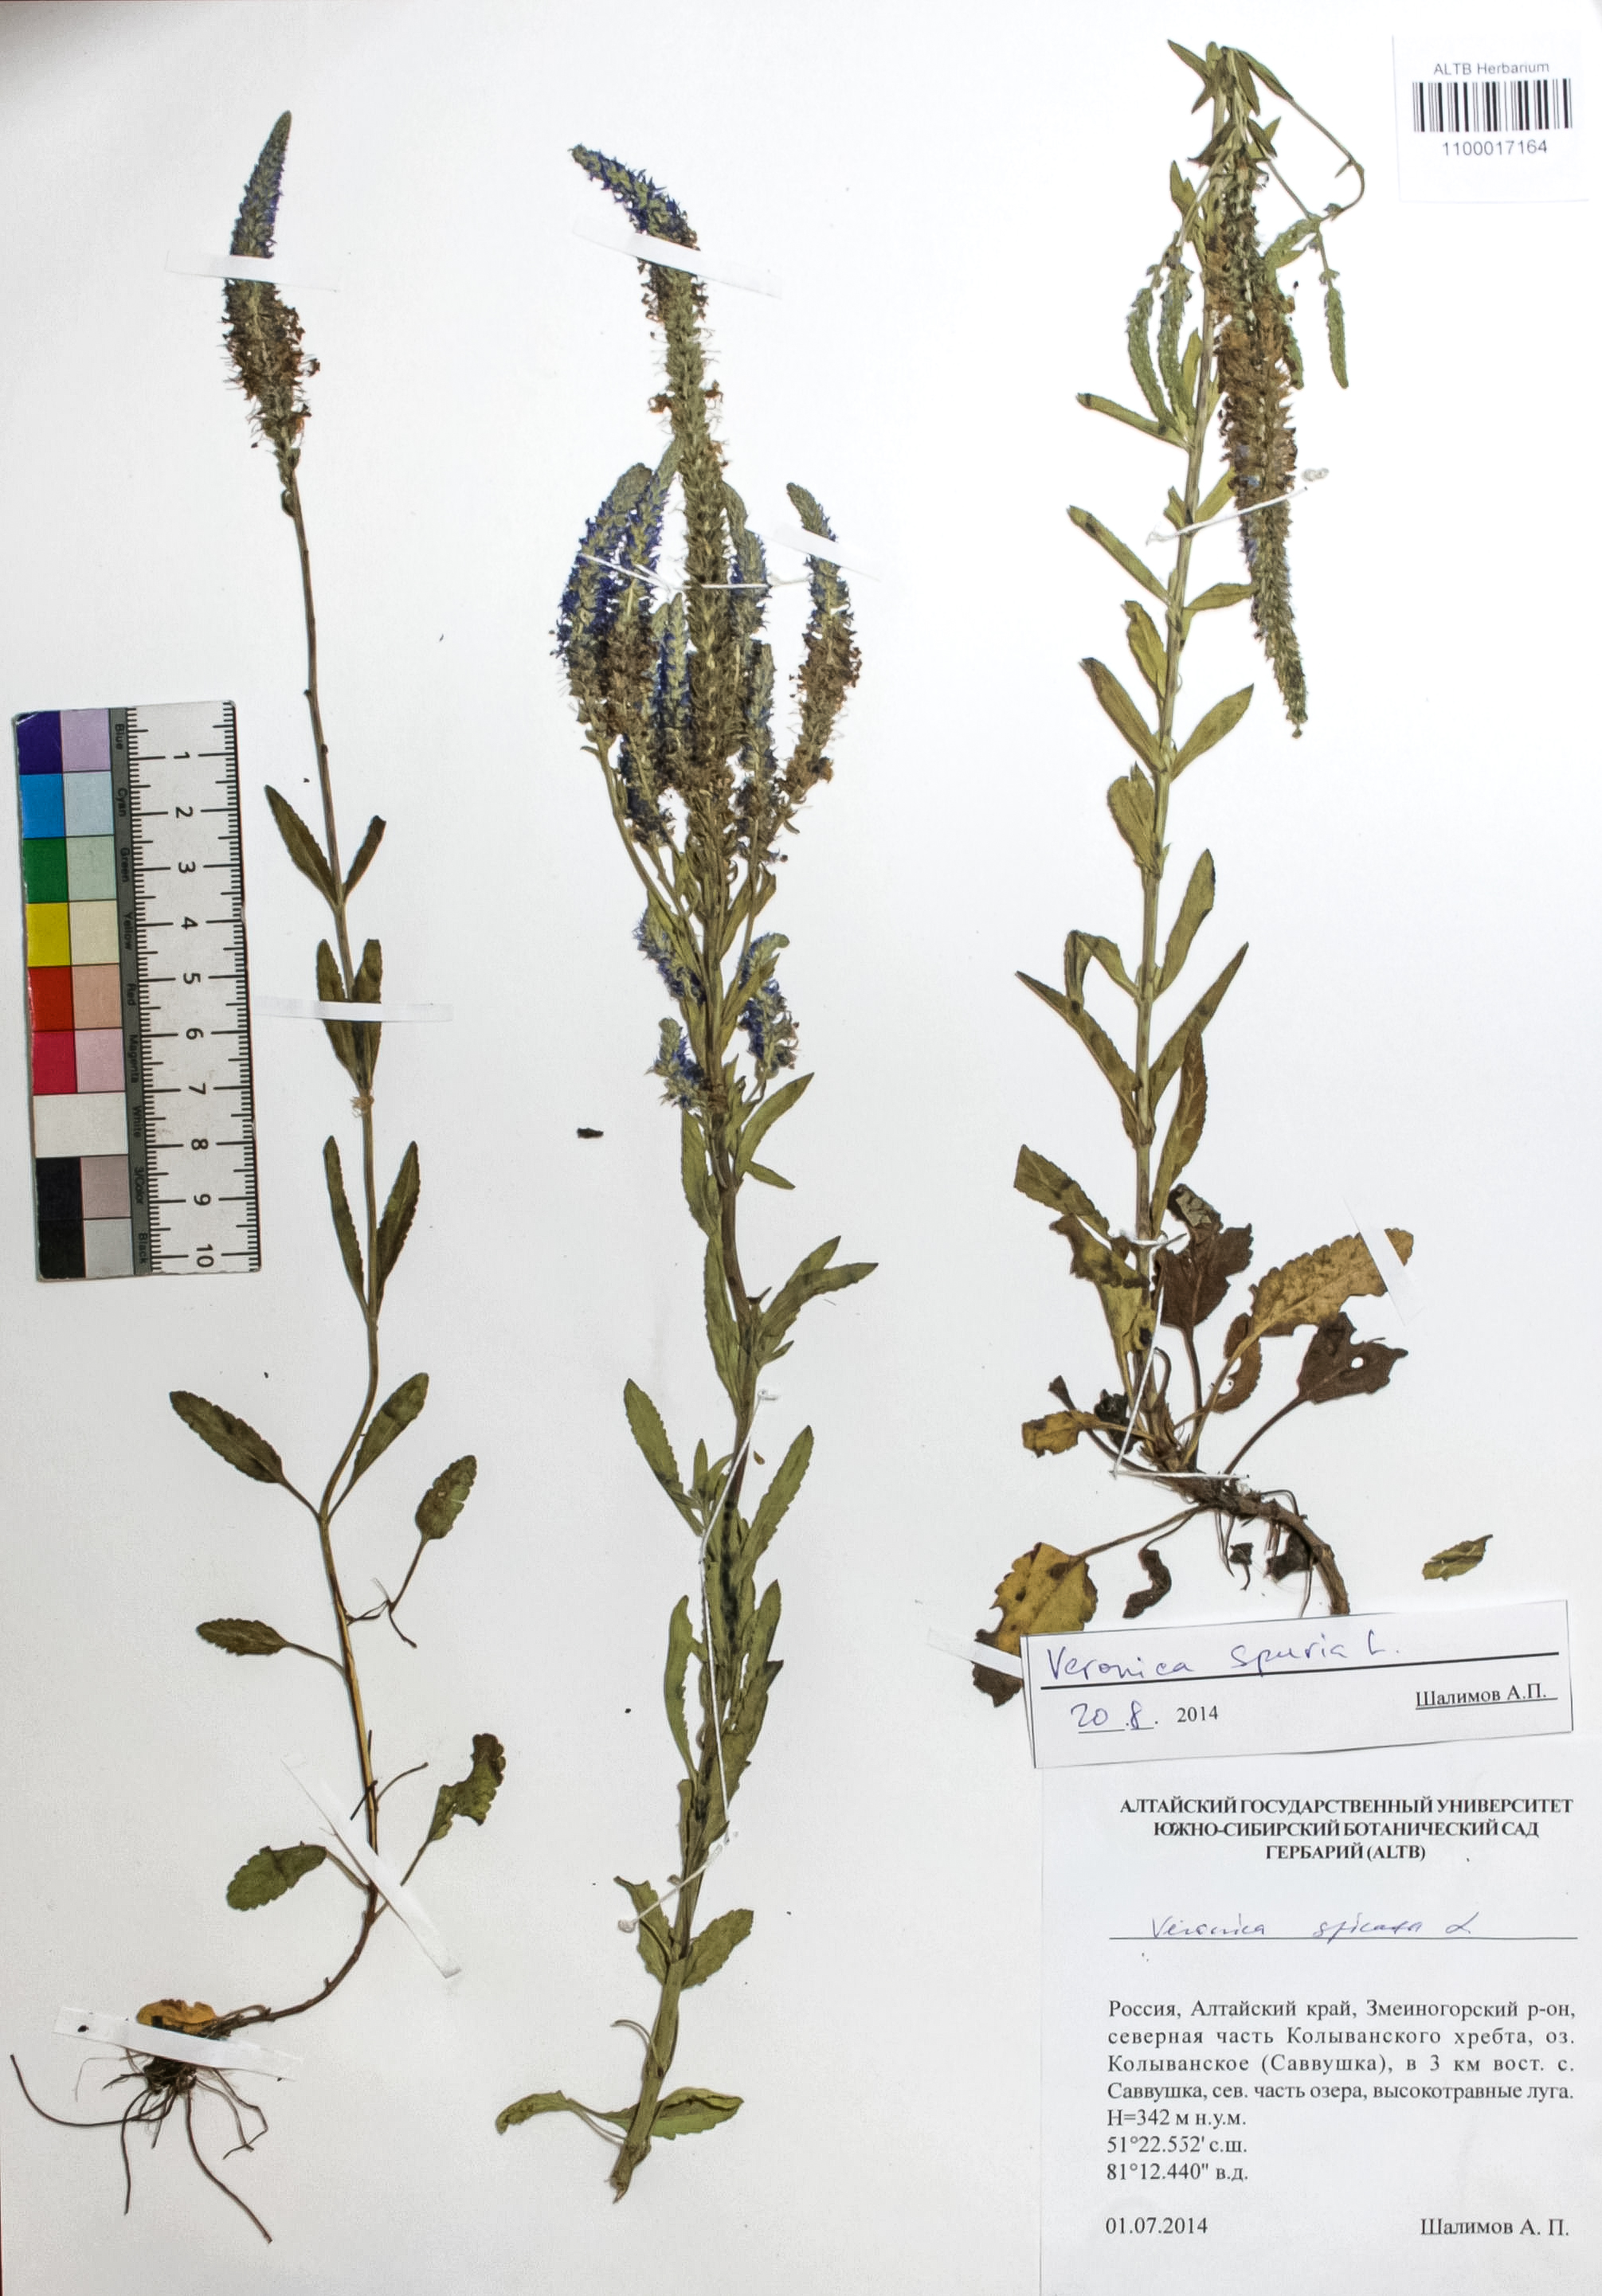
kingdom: Plantae
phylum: Tracheophyta
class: Magnoliopsida
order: Lamiales
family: Plantaginaceae
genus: Veronica
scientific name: Veronica spuria
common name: Bastard speedwell
